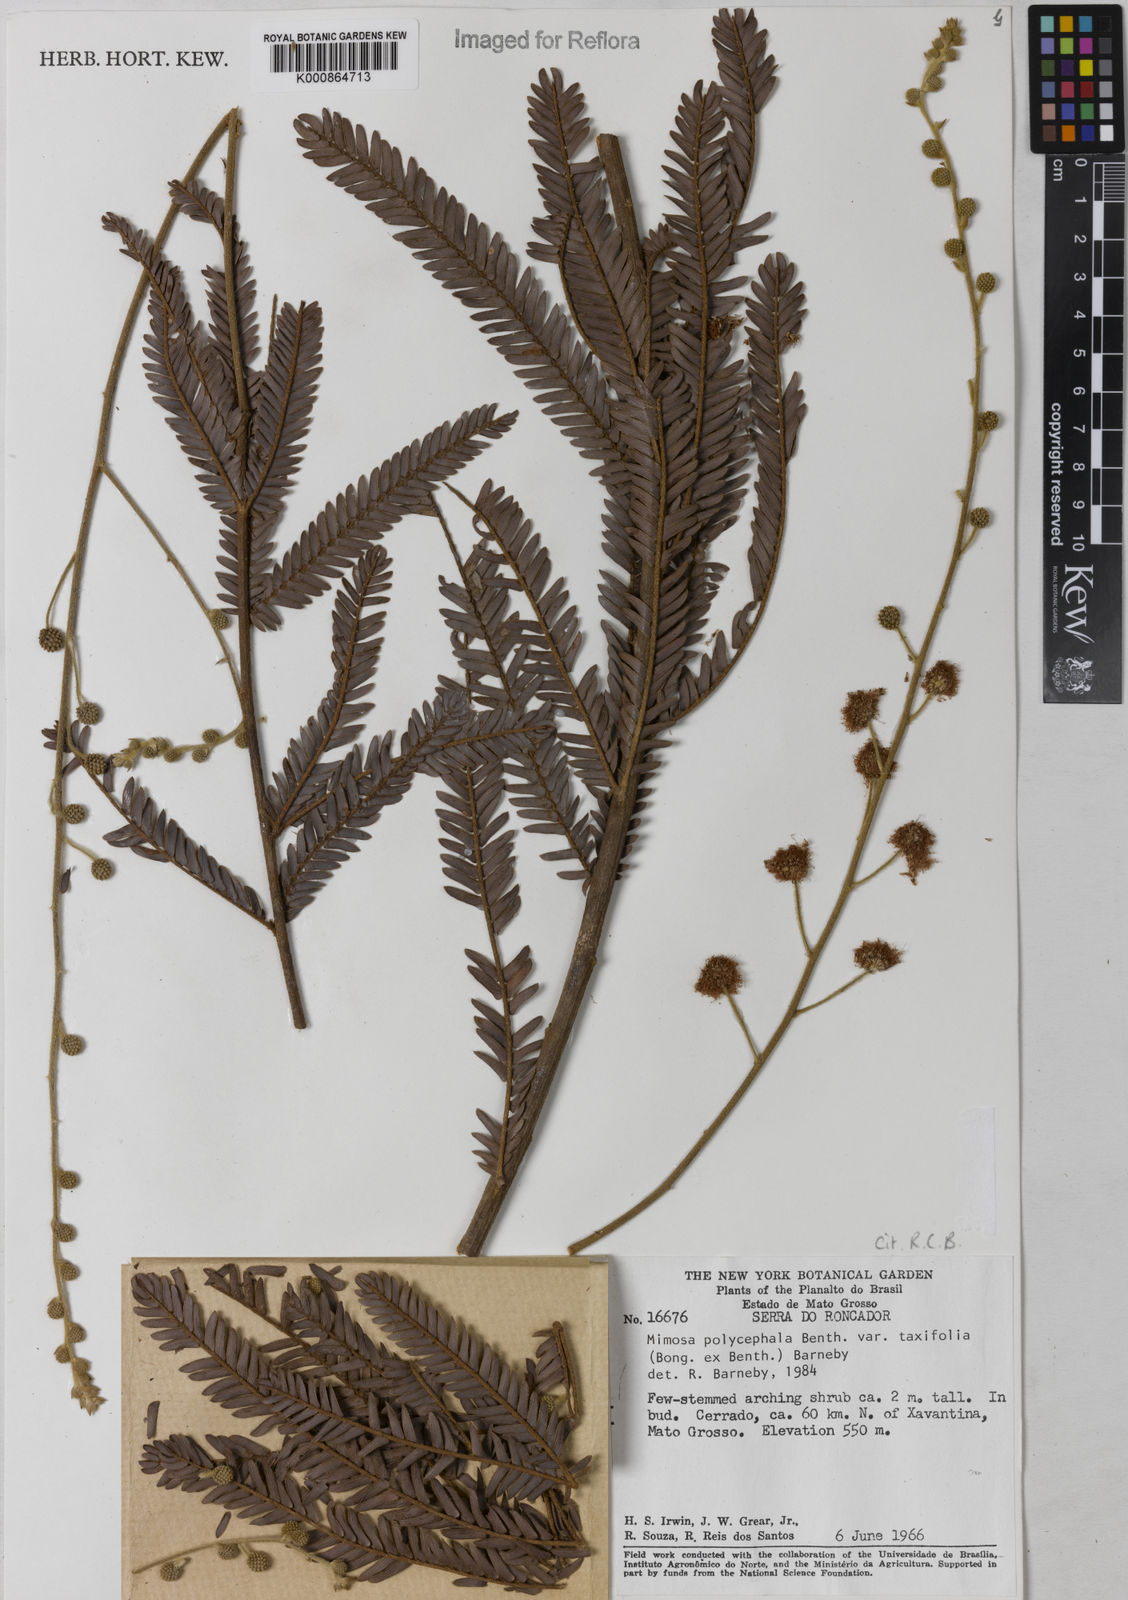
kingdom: Plantae
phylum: Tracheophyta
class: Magnoliopsida
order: Fabales
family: Fabaceae
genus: Mimosa
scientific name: Mimosa polycephala
